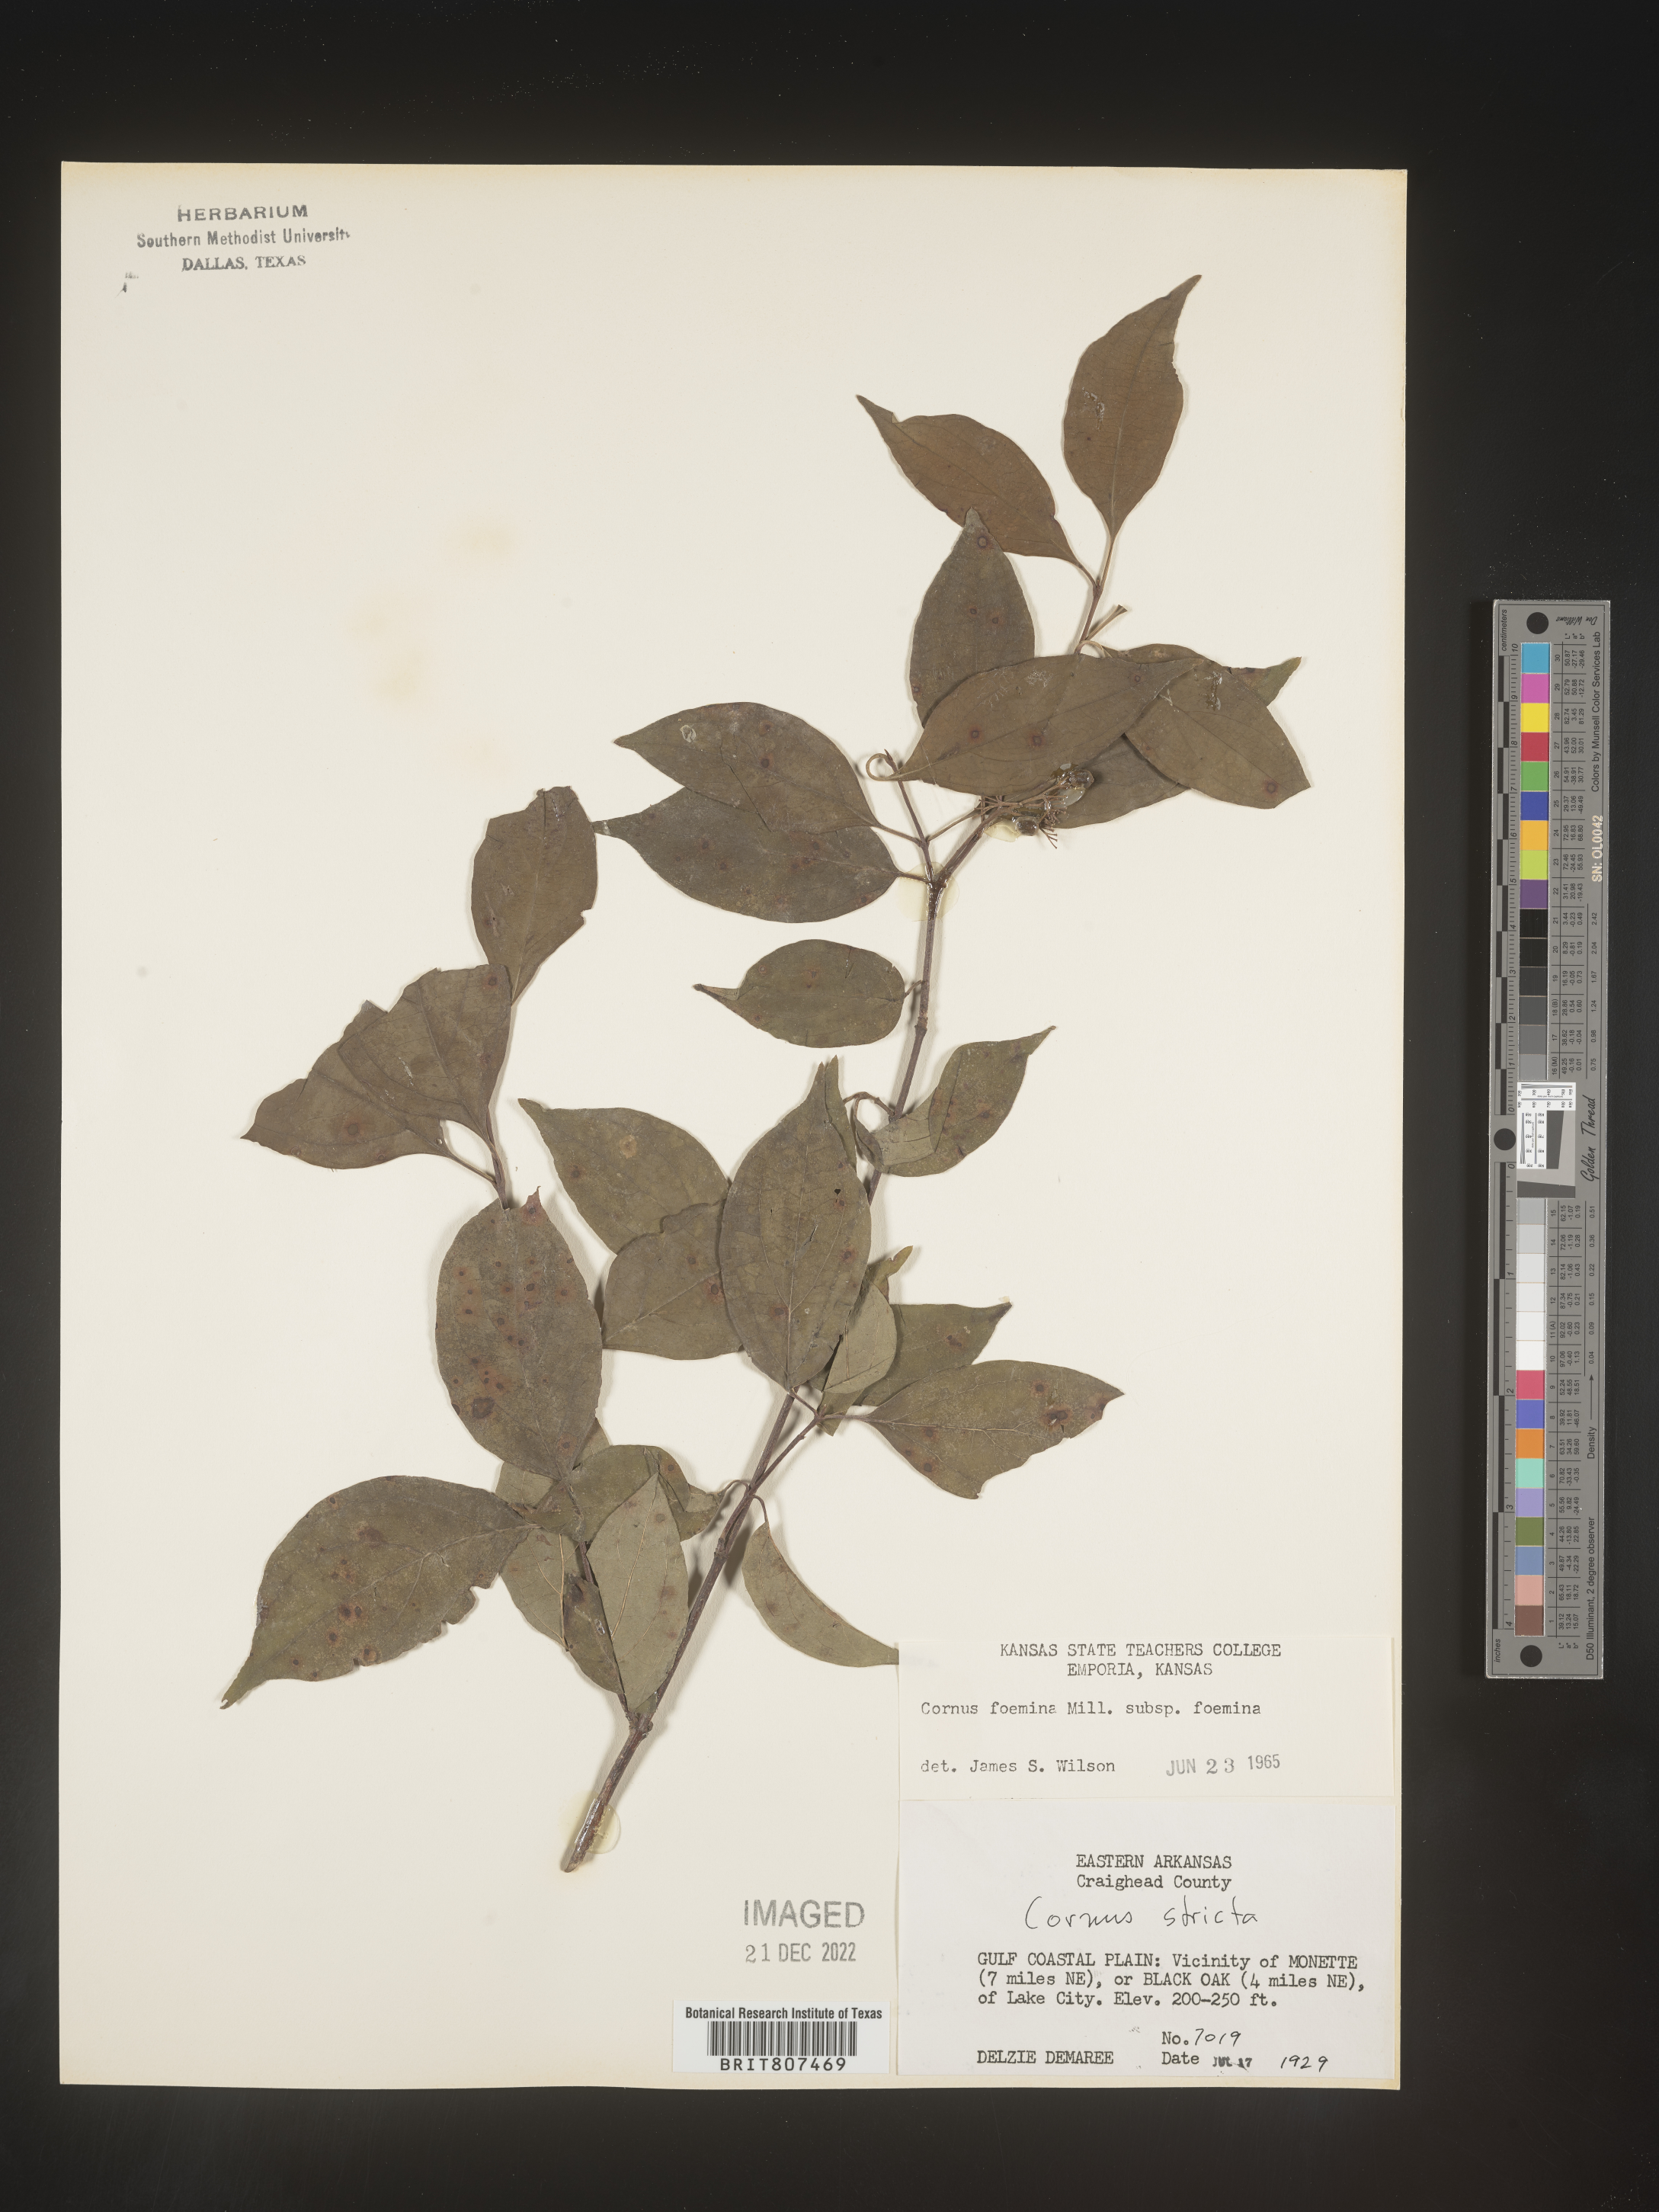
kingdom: Plantae
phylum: Tracheophyta
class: Magnoliopsida
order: Cornales
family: Cornaceae
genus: Cornus
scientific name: Cornus foemina
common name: Swamp dogwood
